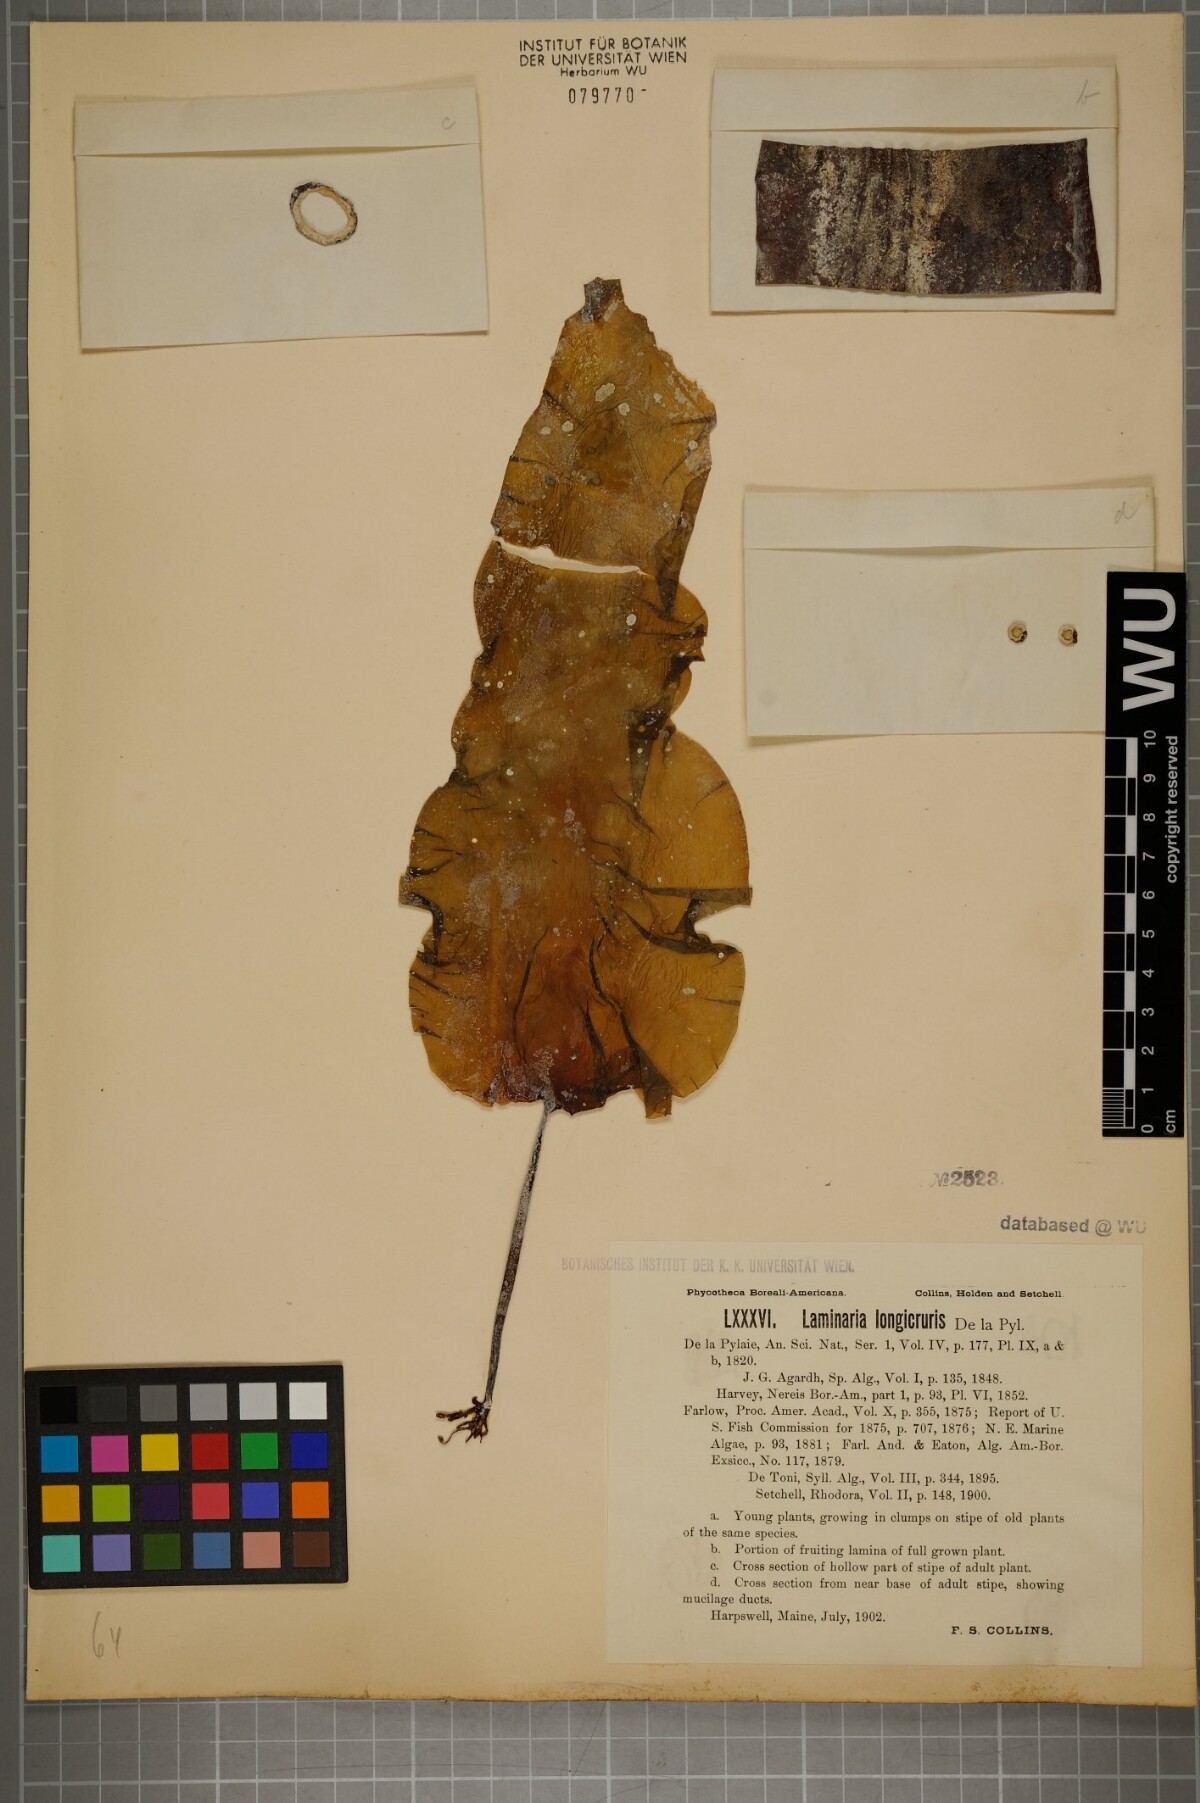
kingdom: Chromista
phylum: Ochrophyta
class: Phaeophyceae
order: Laminariales
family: Laminariaceae
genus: Saccharina
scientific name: Saccharina longicruris
